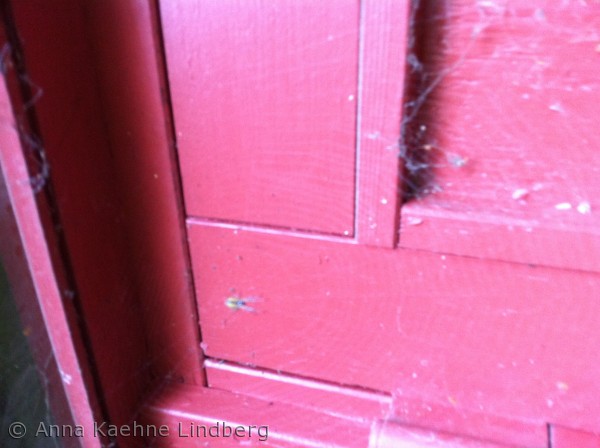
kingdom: Animalia
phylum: Arthropoda
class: Arachnida
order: Araneae
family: Araneidae
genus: Araneus
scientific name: Araneus diadematus
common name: Korsedderkop
